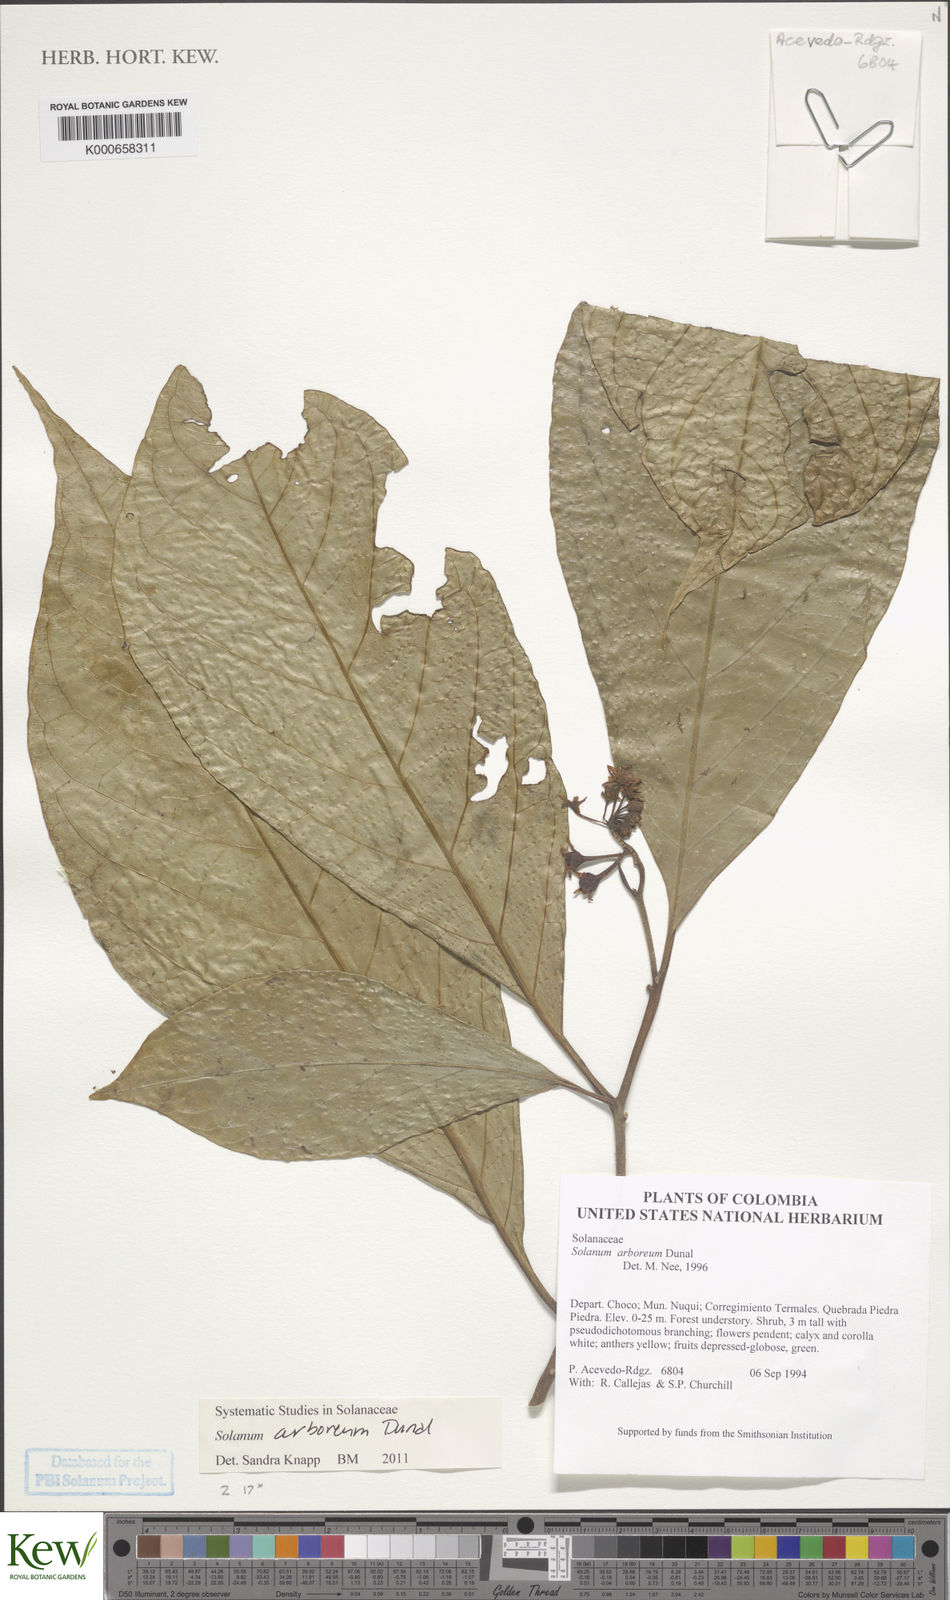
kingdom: Plantae
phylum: Tracheophyta
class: Magnoliopsida
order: Solanales
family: Solanaceae
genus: Solanum
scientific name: Solanum arboreum
